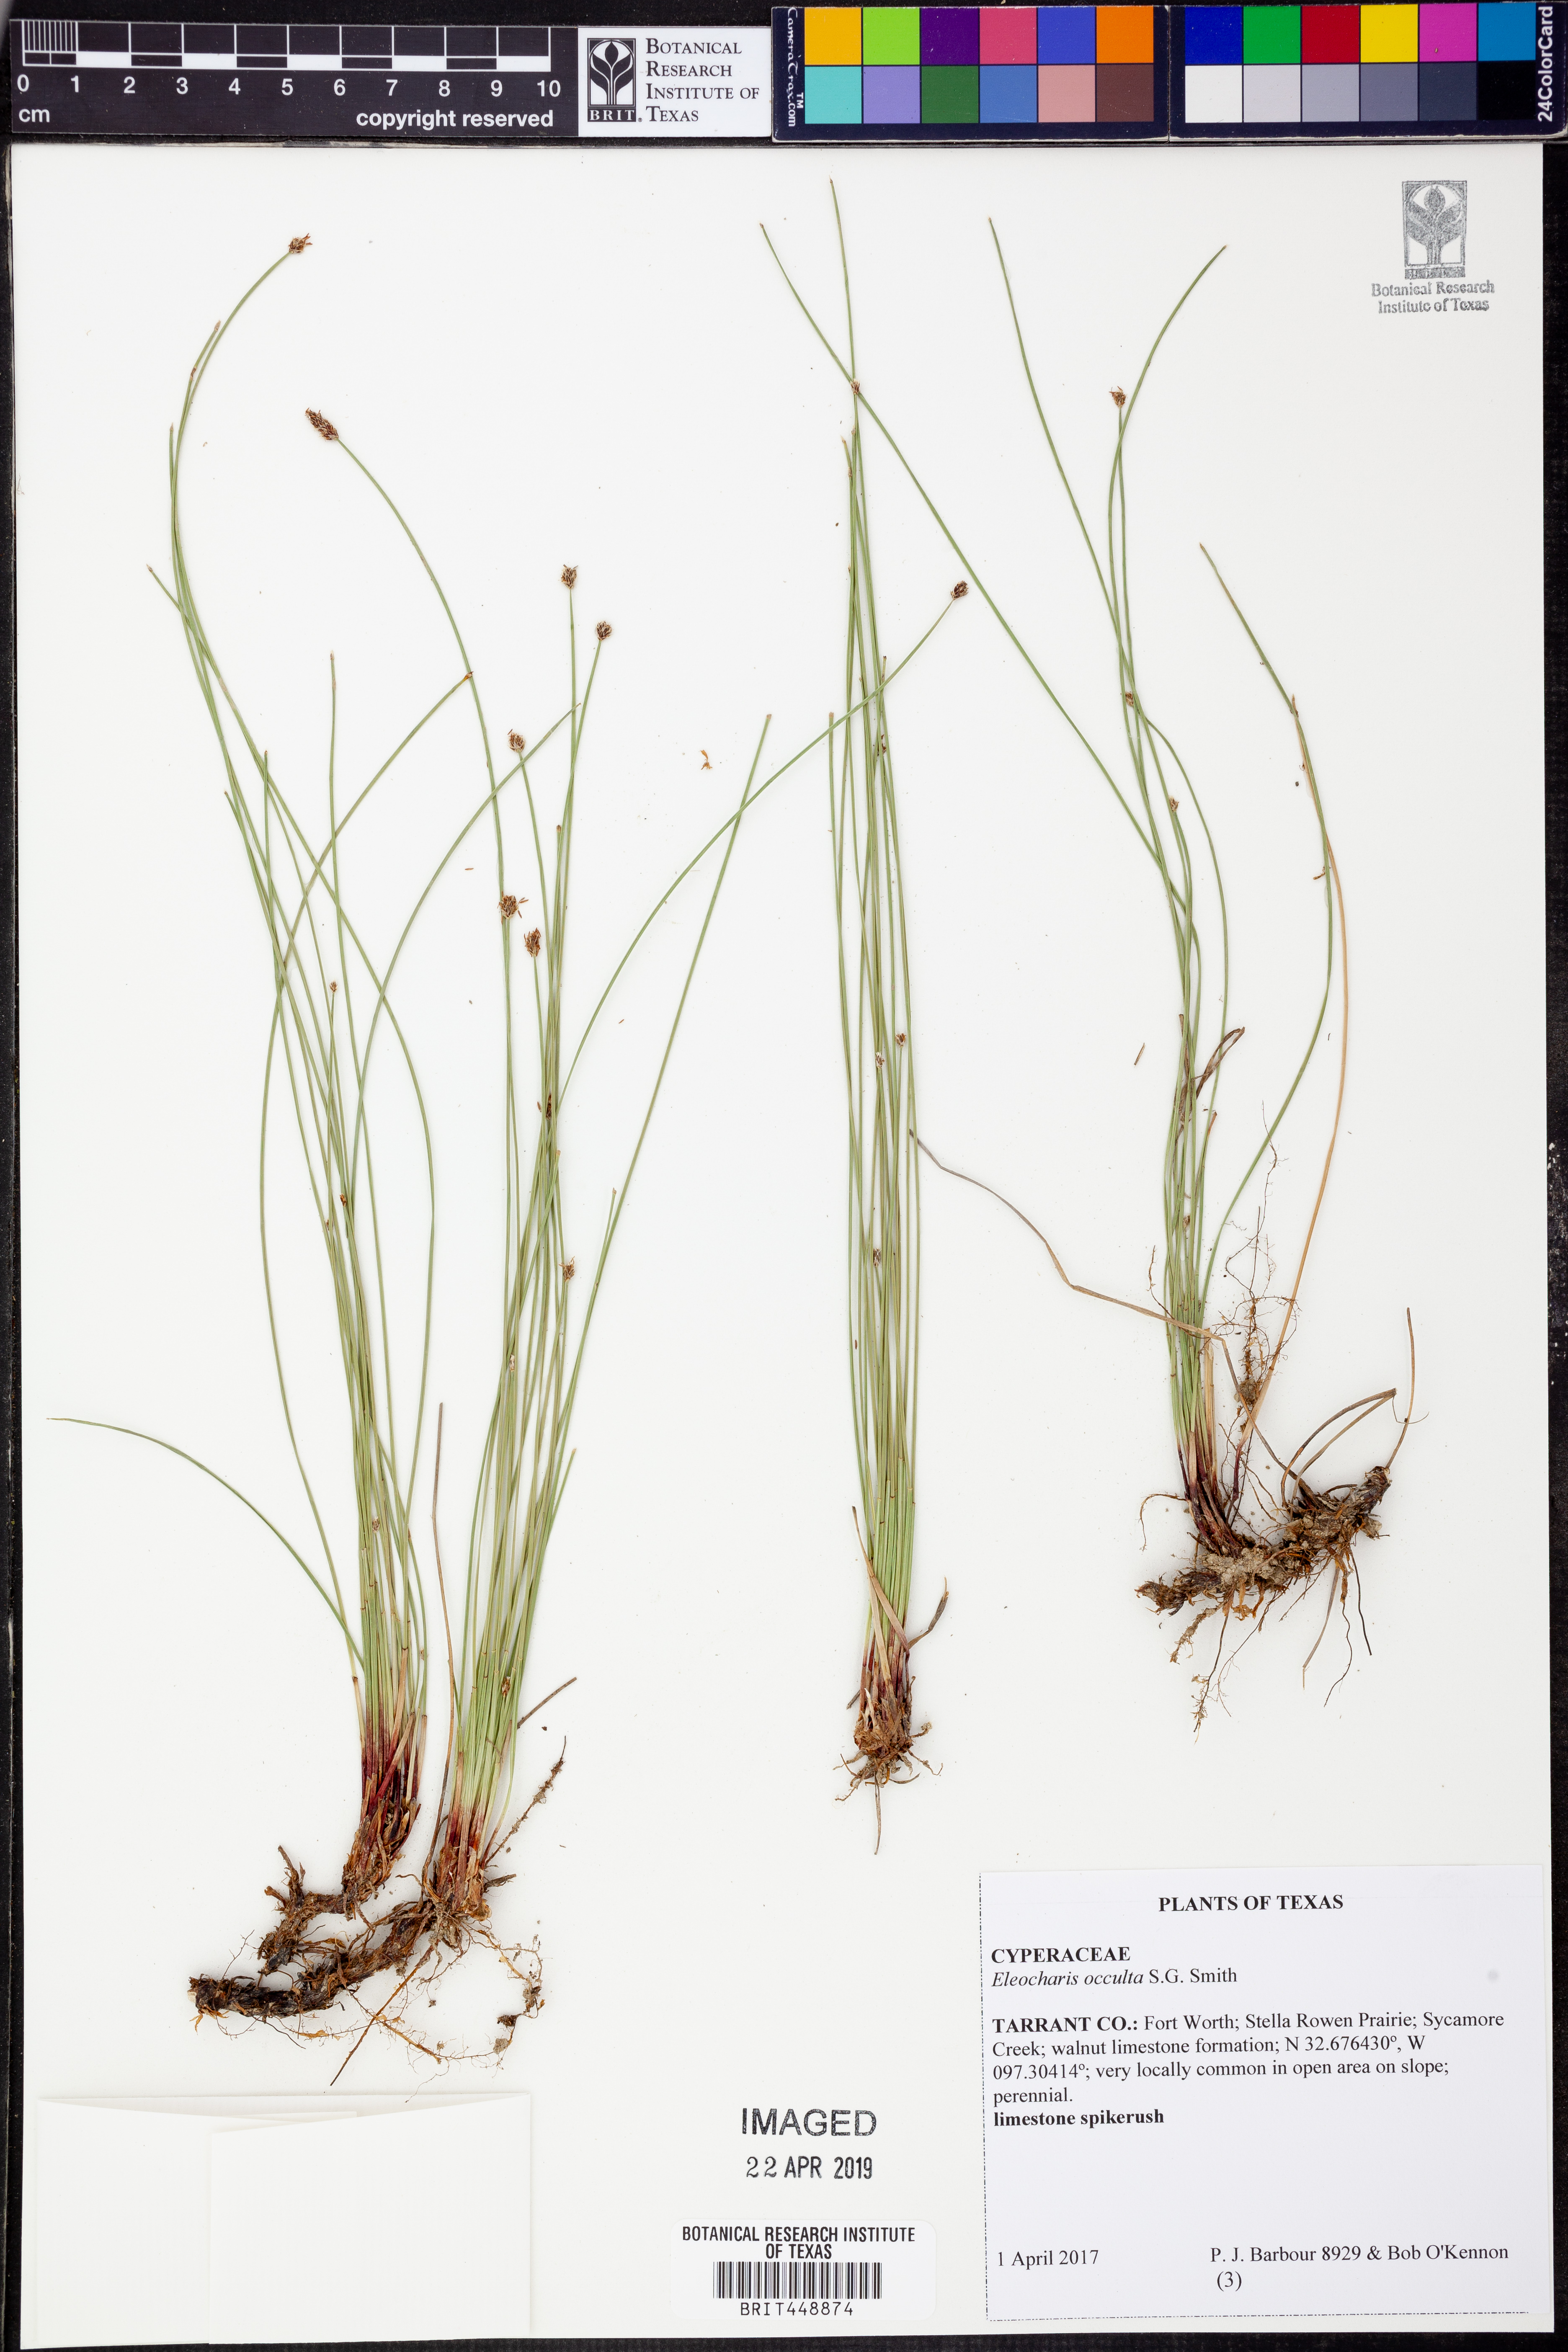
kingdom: Plantae
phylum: Tracheophyta
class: Liliopsida
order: Poales
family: Cyperaceae
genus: Eleocharis
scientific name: Eleocharis occulta
